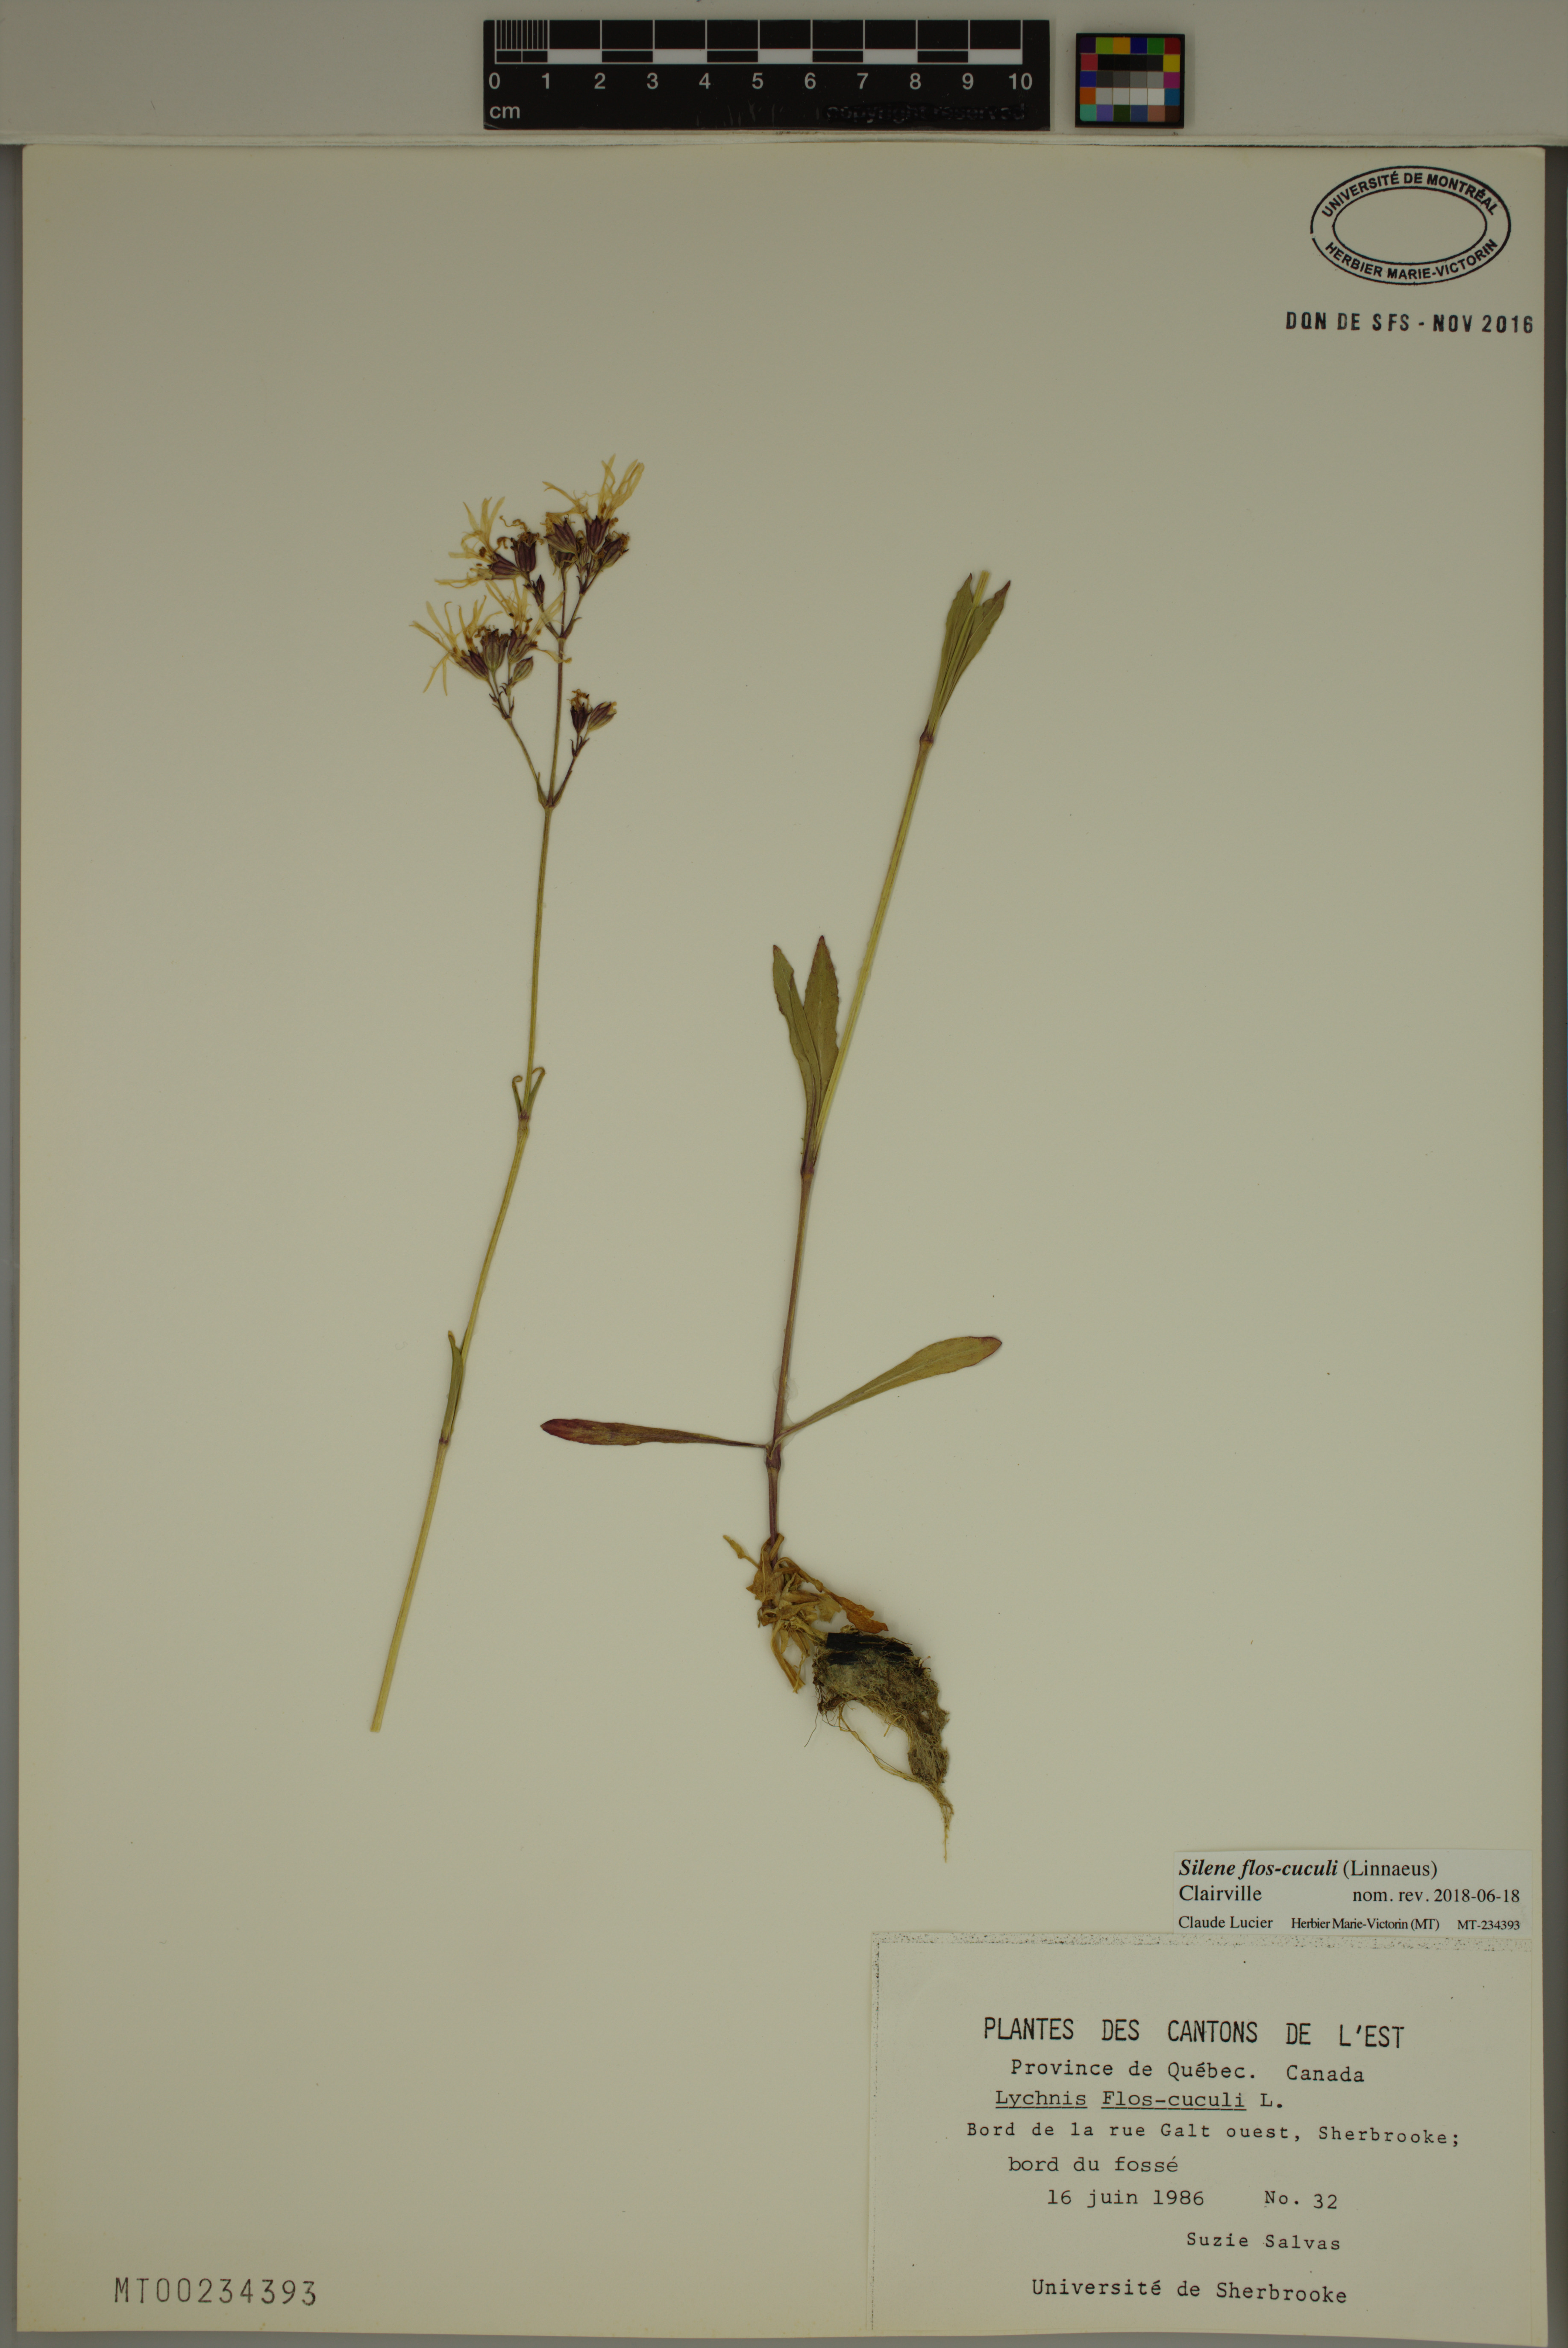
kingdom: Plantae
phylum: Tracheophyta
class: Magnoliopsida
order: Caryophyllales
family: Caryophyllaceae
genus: Silene
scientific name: Silene flos-cuculi
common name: Ragged-robin
